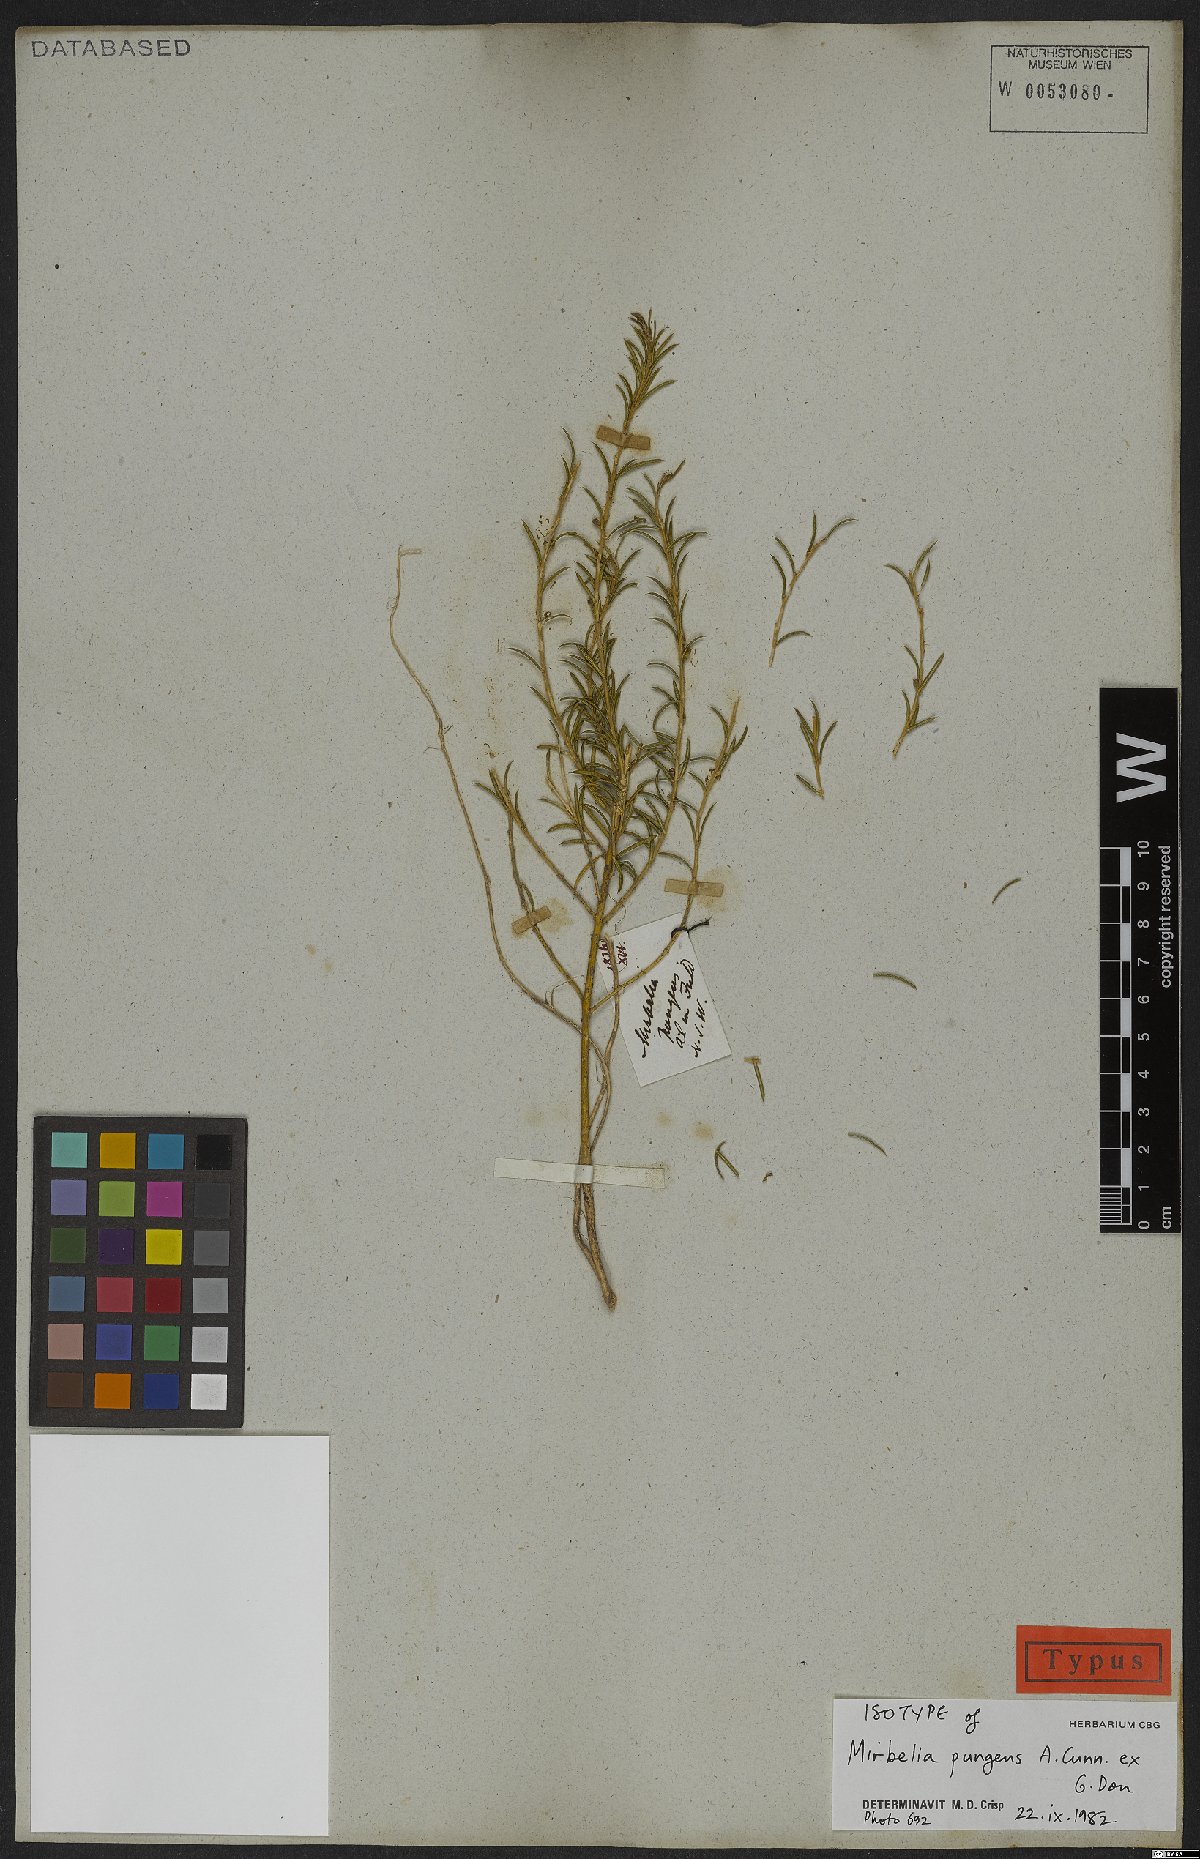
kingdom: Plantae
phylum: Tracheophyta
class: Magnoliopsida
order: Fabales
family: Fabaceae
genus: Mirbelia
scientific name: Mirbelia pungens
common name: Prickly mirbelia
